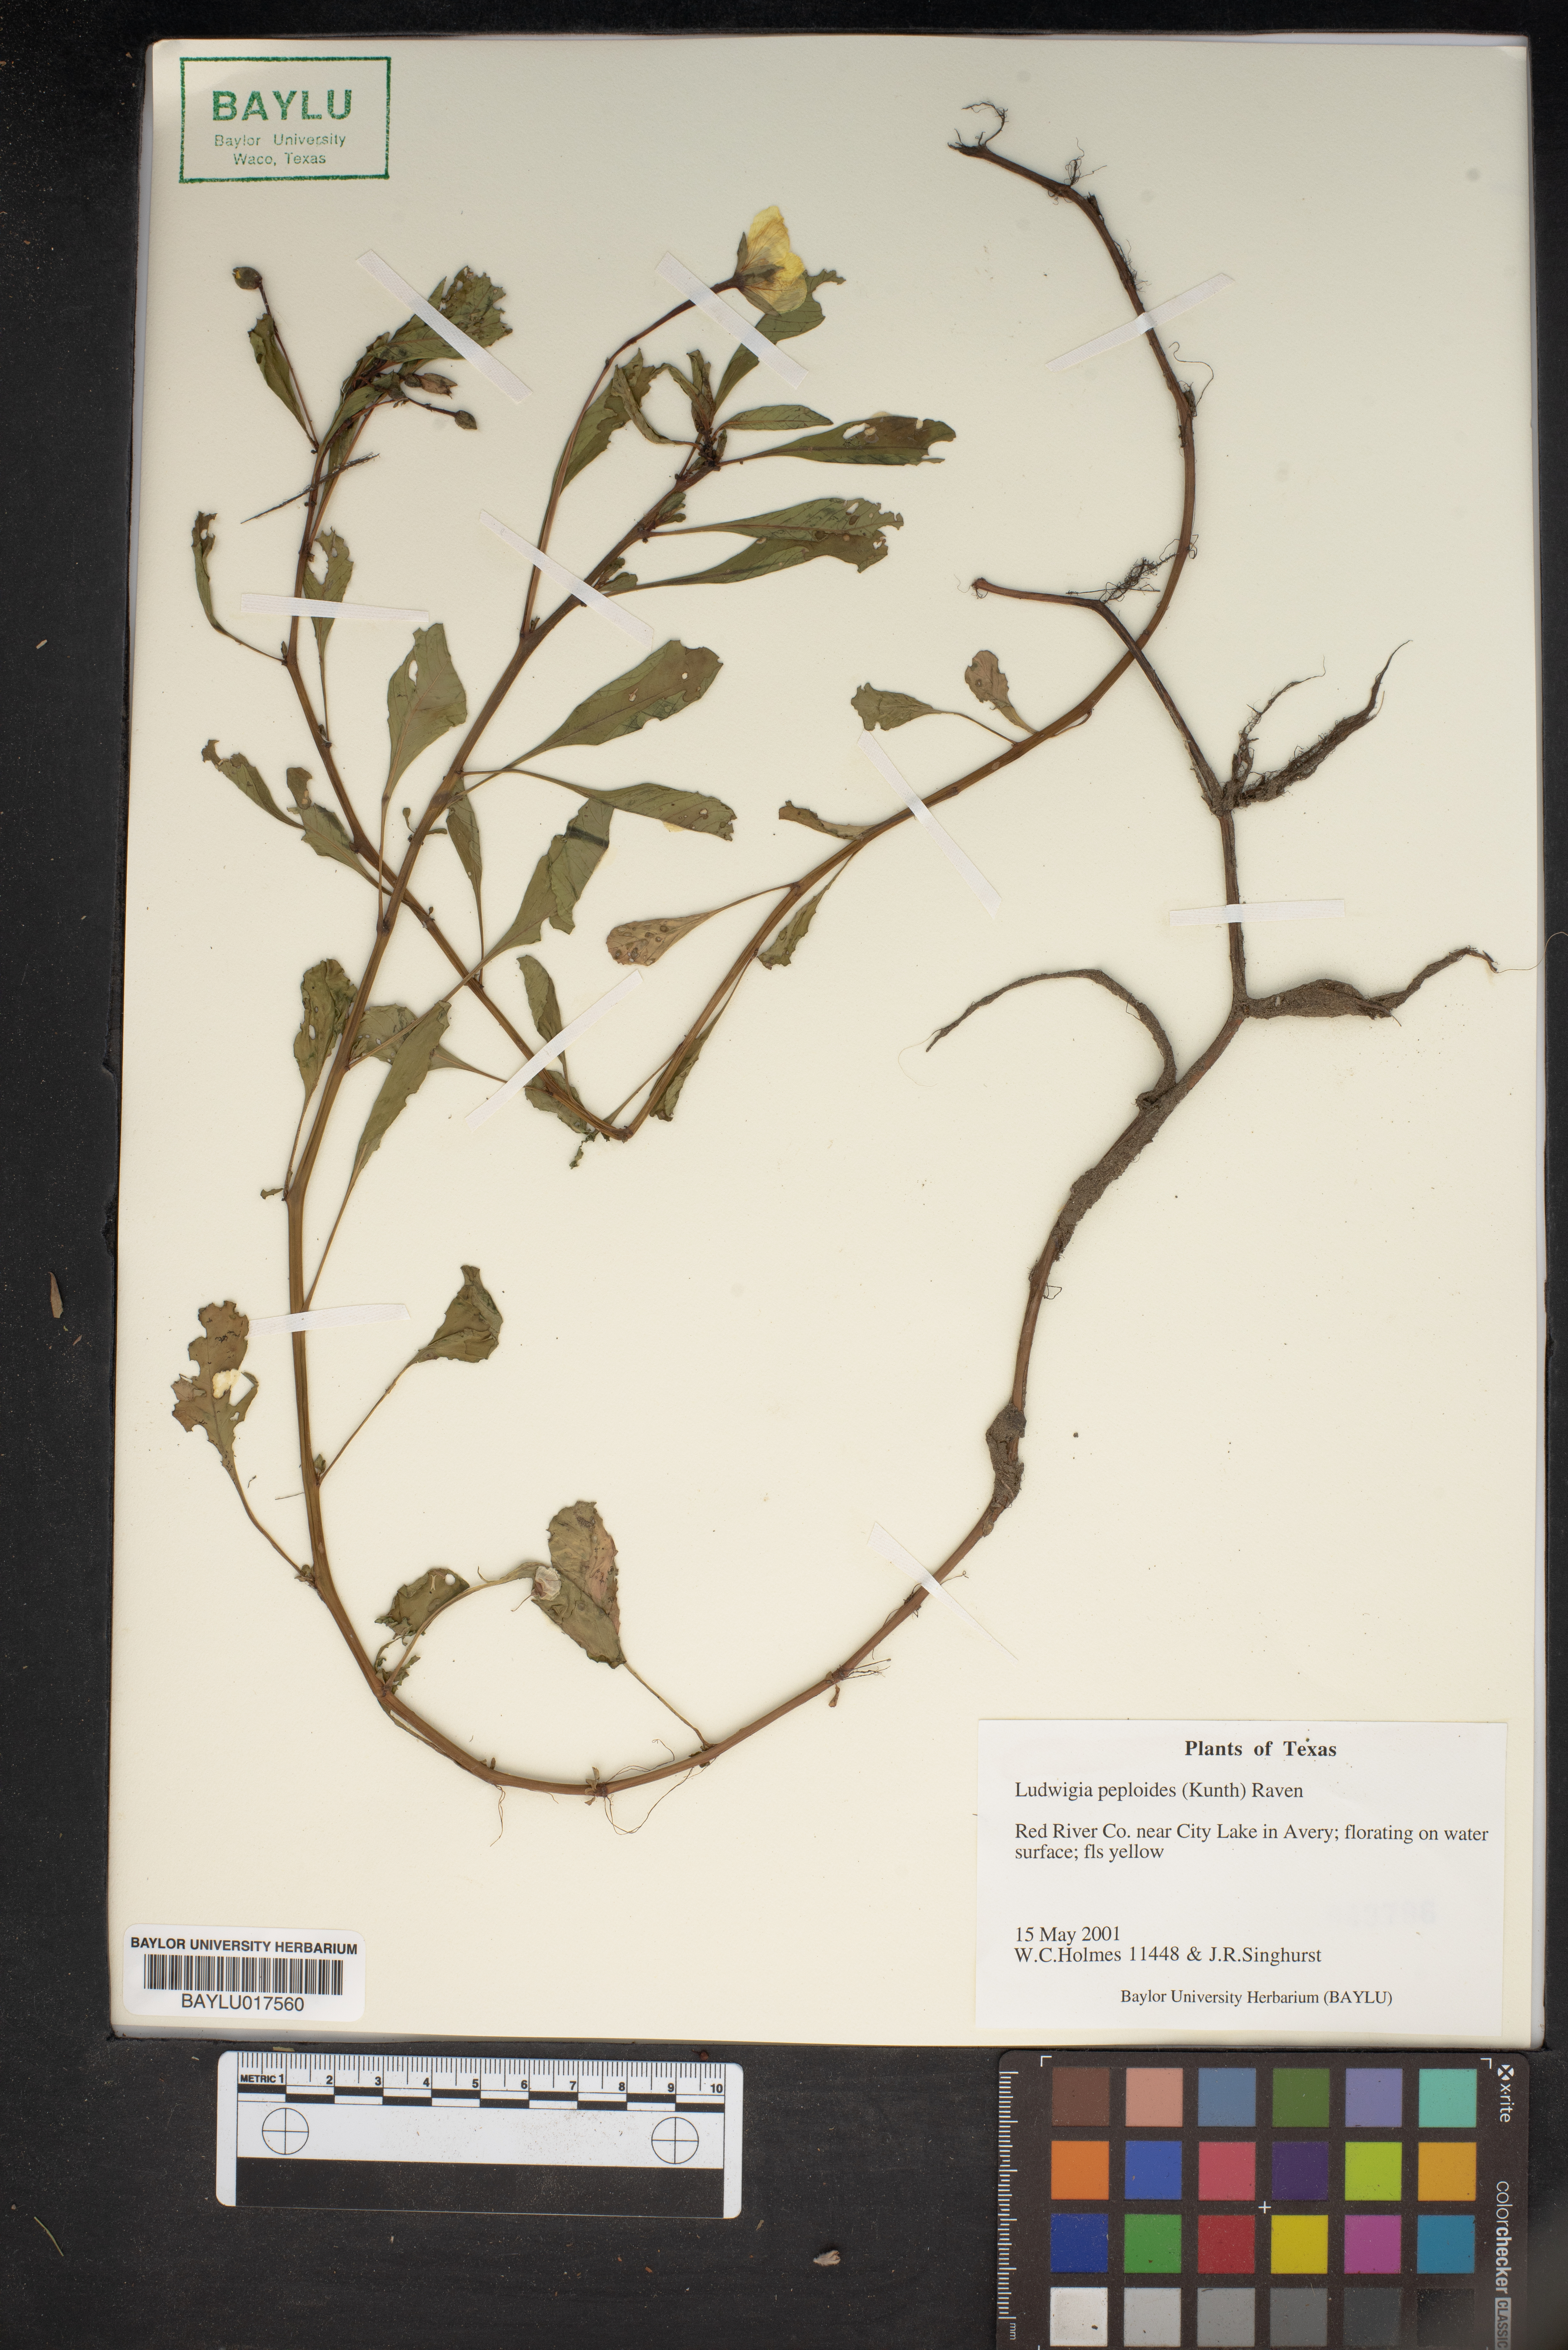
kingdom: Plantae
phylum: Tracheophyta
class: Magnoliopsida
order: Myrtales
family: Onagraceae
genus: Ludwigia
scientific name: Ludwigia peploides
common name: Floating primrose-willow
